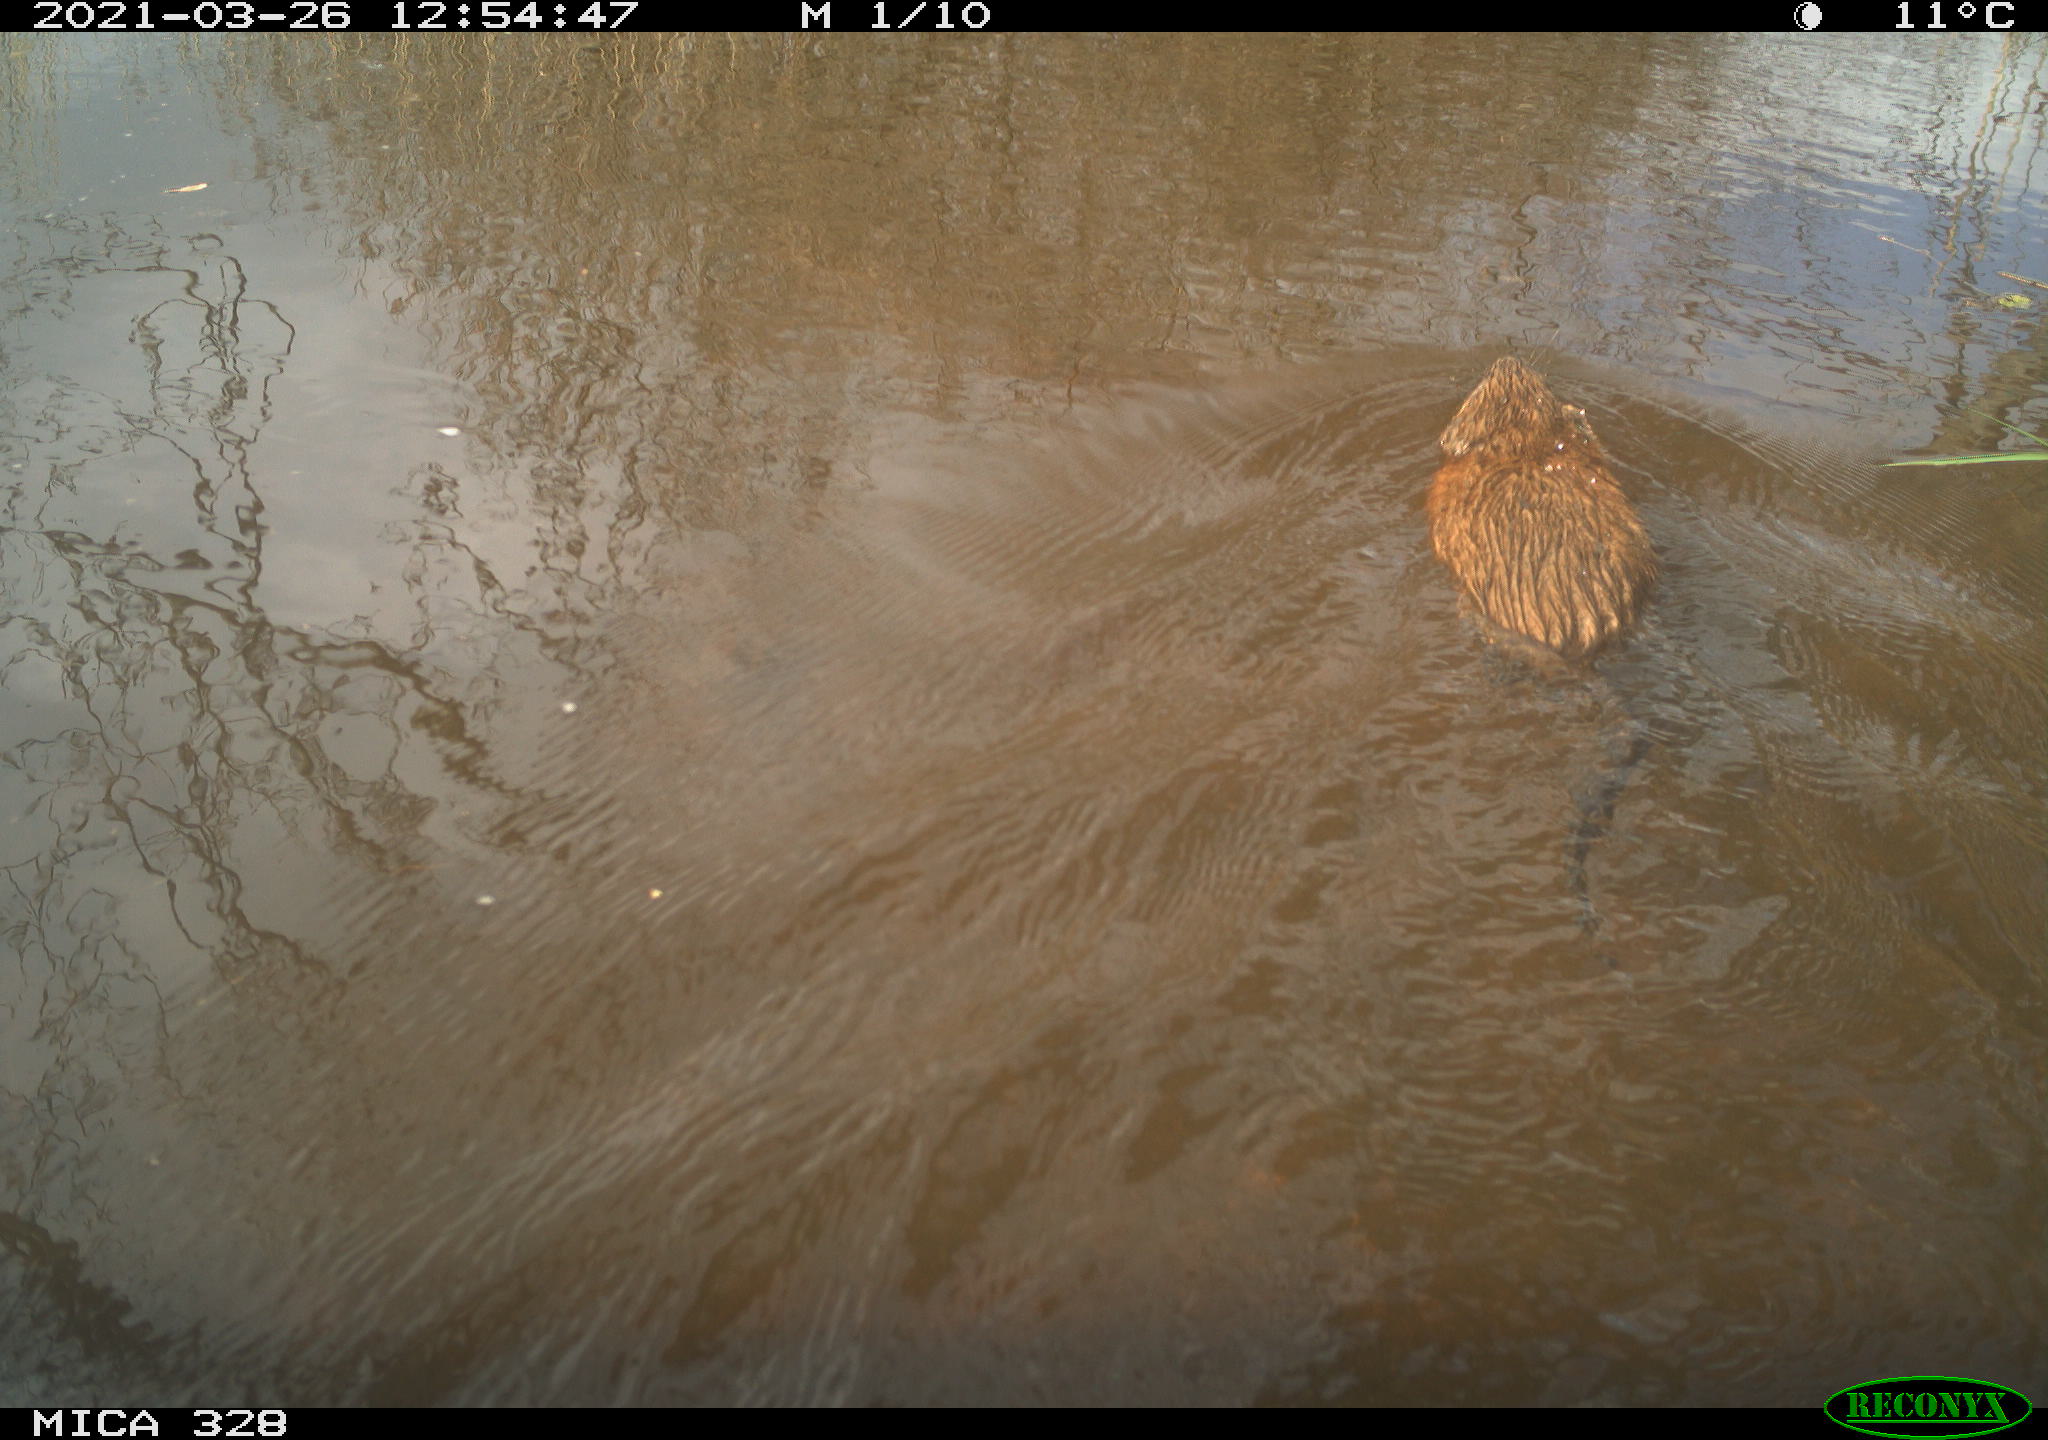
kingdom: Animalia
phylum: Chordata
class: Mammalia
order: Rodentia
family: Cricetidae
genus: Ondatra
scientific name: Ondatra zibethicus
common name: Muskrat
